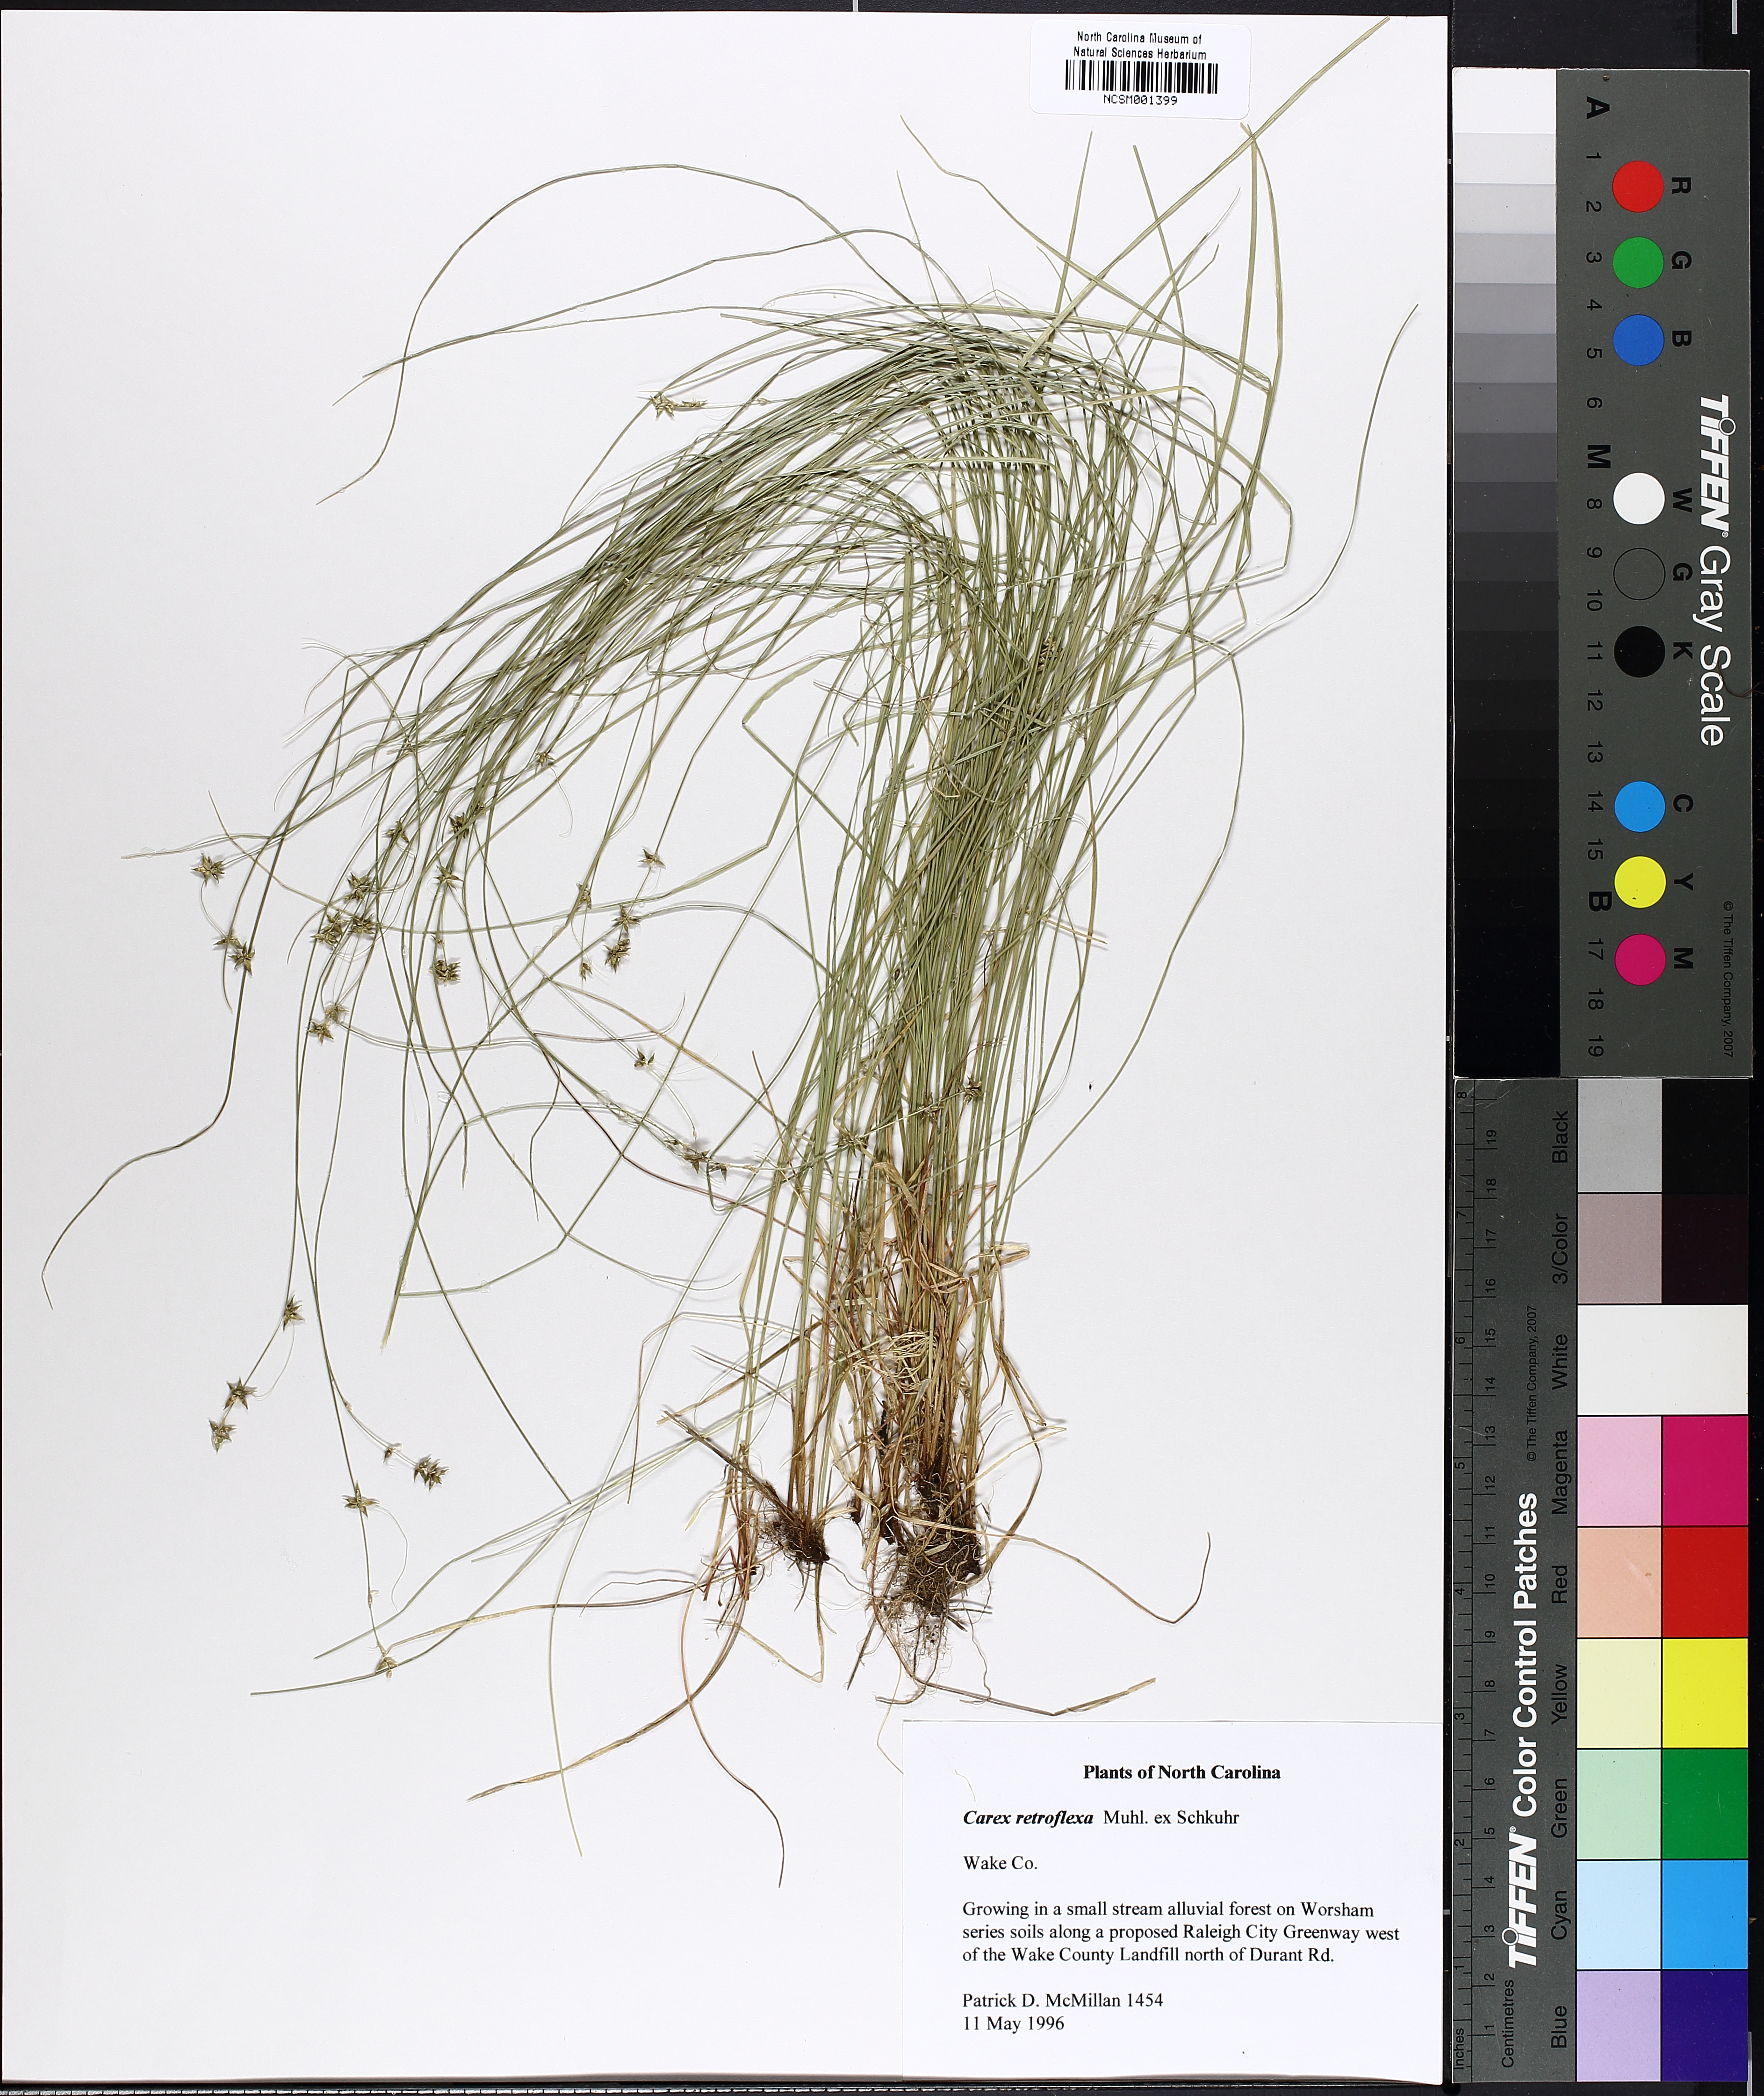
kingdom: Plantae
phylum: Tracheophyta
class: Liliopsida
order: Poales
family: Cyperaceae
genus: Carex
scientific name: Carex retroflexa
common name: Reflexed sedge
